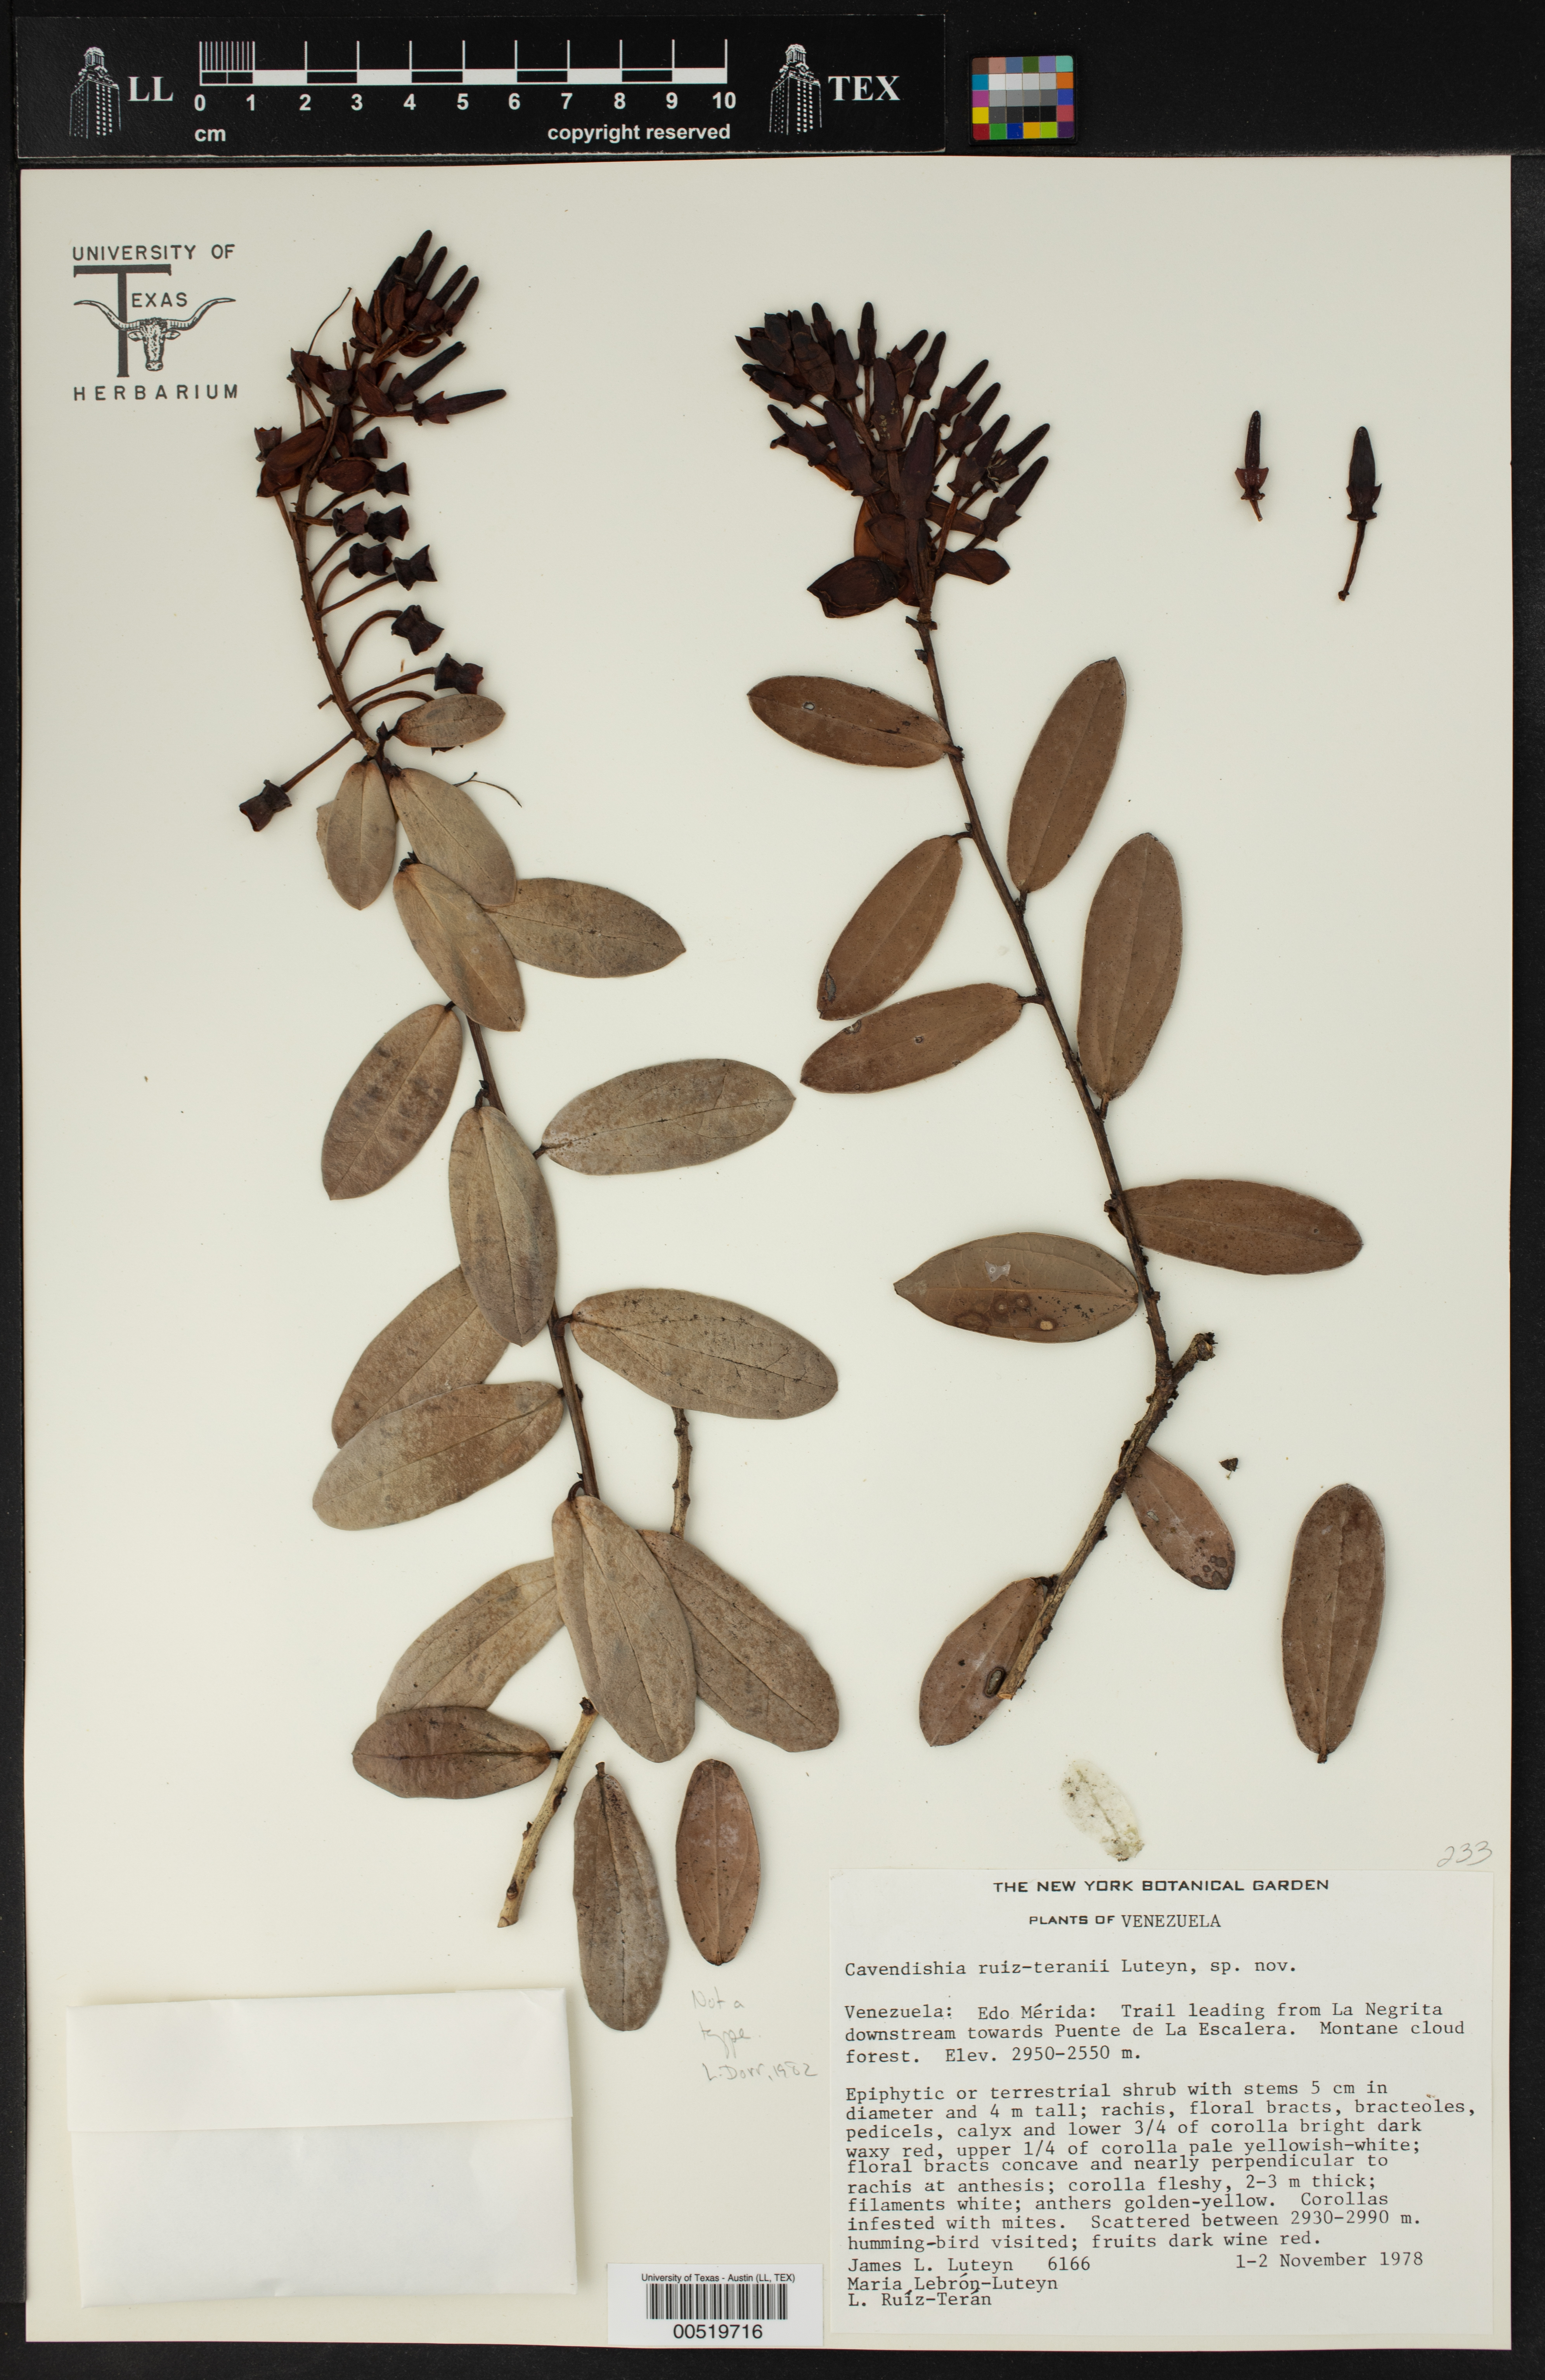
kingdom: Plantae
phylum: Tracheophyta
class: Magnoliopsida
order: Ericales
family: Ericaceae
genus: Cavendishia
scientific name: Cavendishia ruiz-teranii
